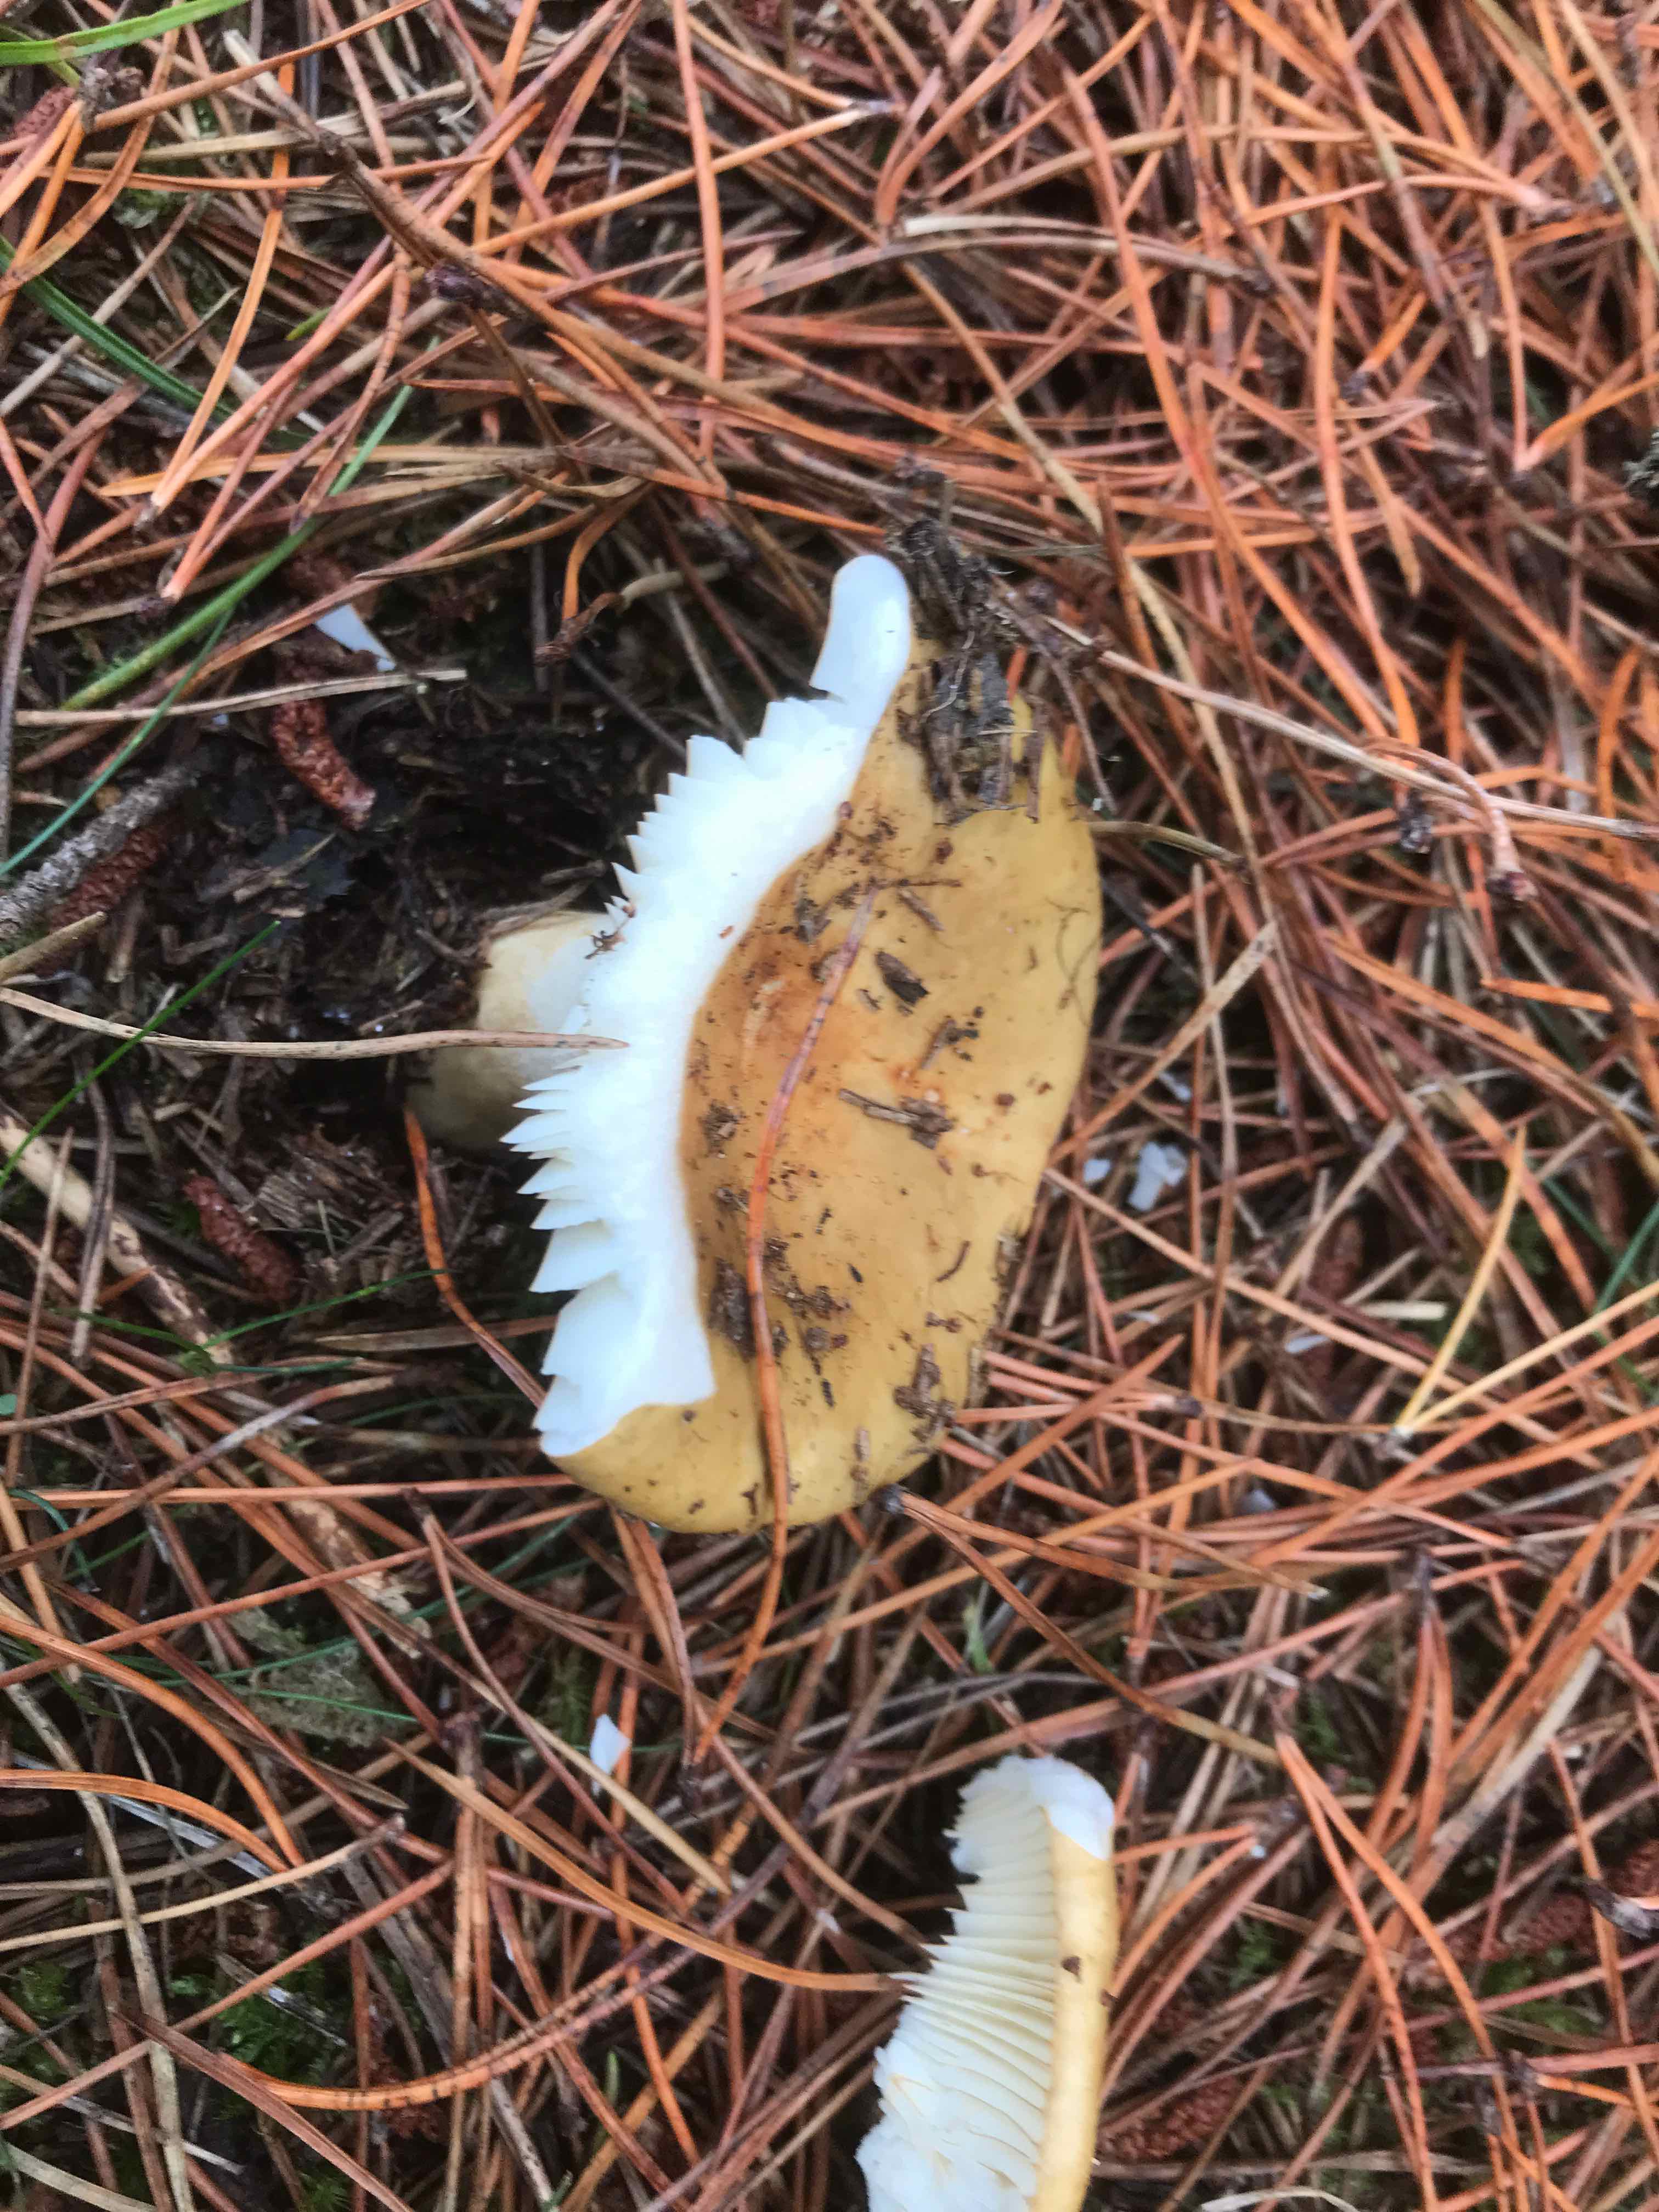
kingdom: Fungi
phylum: Basidiomycota
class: Agaricomycetes
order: Russulales
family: Russulaceae
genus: Russula
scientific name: Russula ochroleuca
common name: okkergul skørhat
